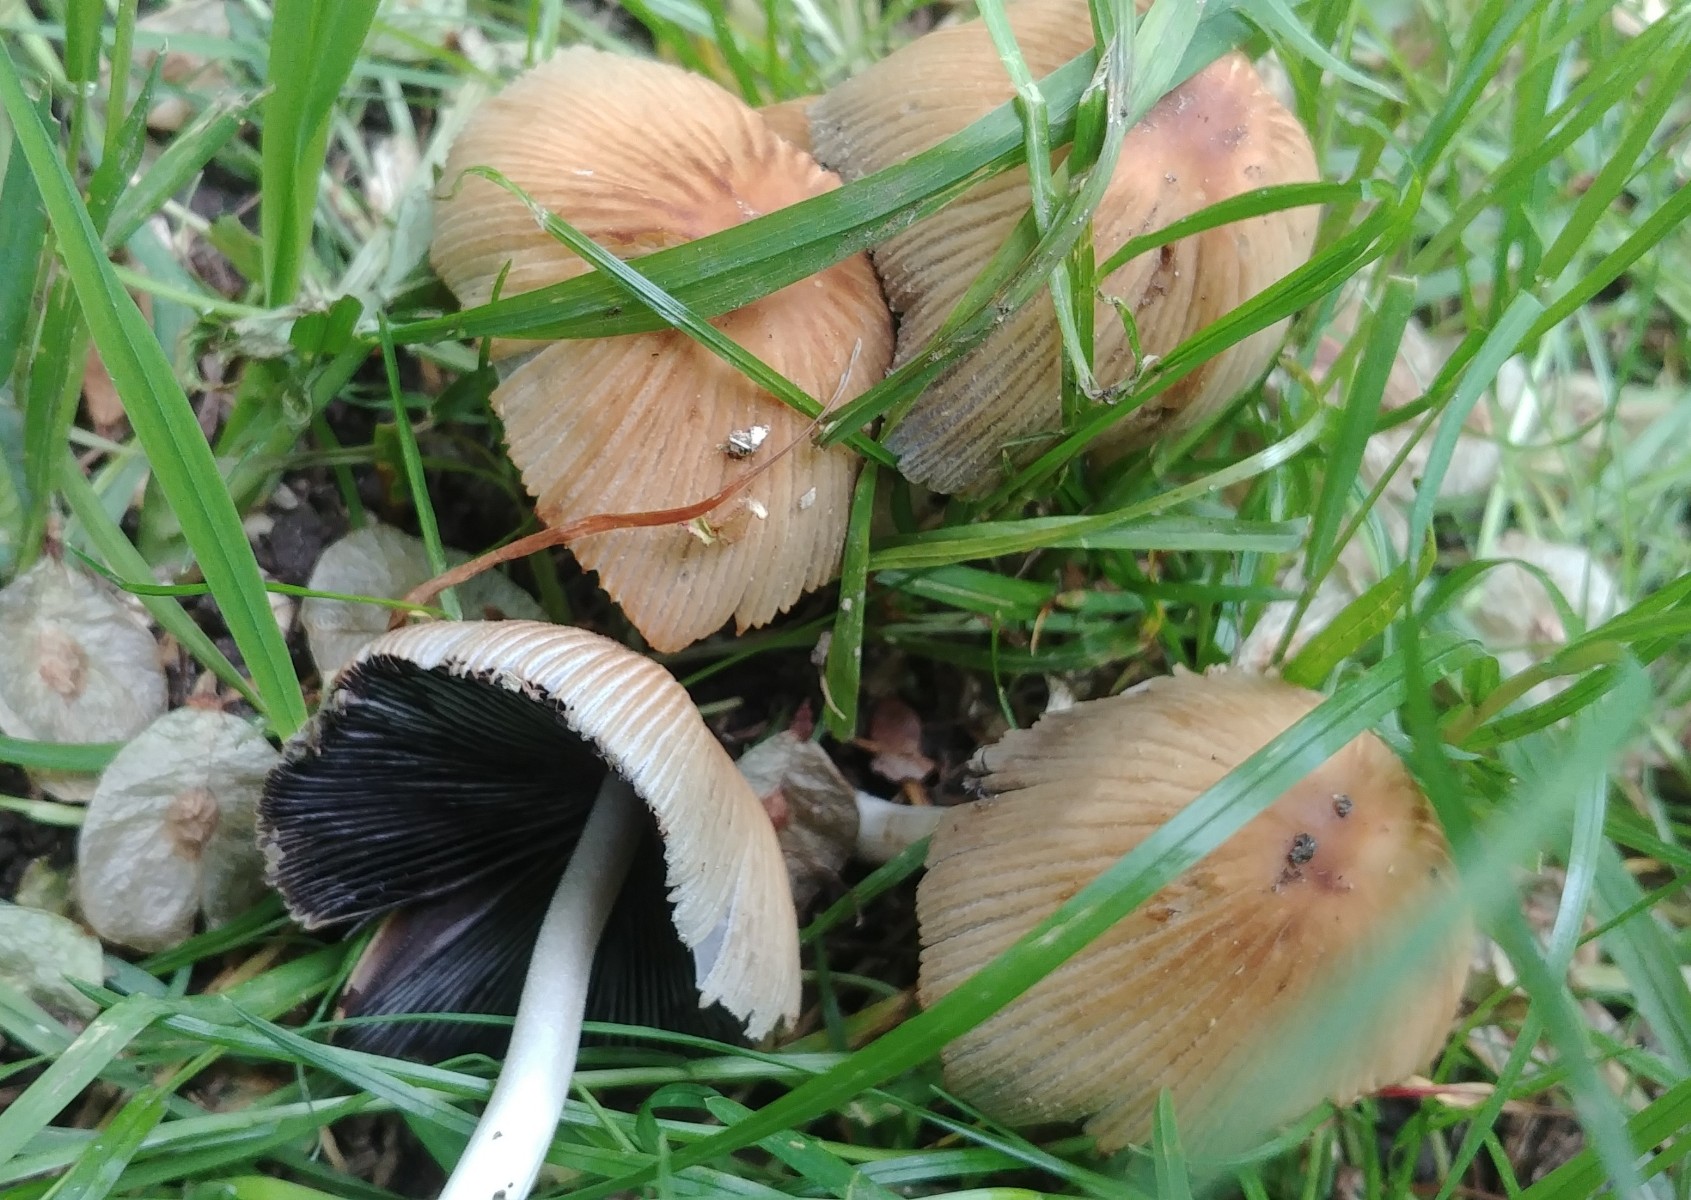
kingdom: Fungi
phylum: Basidiomycota
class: Agaricomycetes
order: Agaricales
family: Psathyrellaceae
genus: Coprinellus
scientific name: Coprinellus micaceus
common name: glimmer-blækhat
